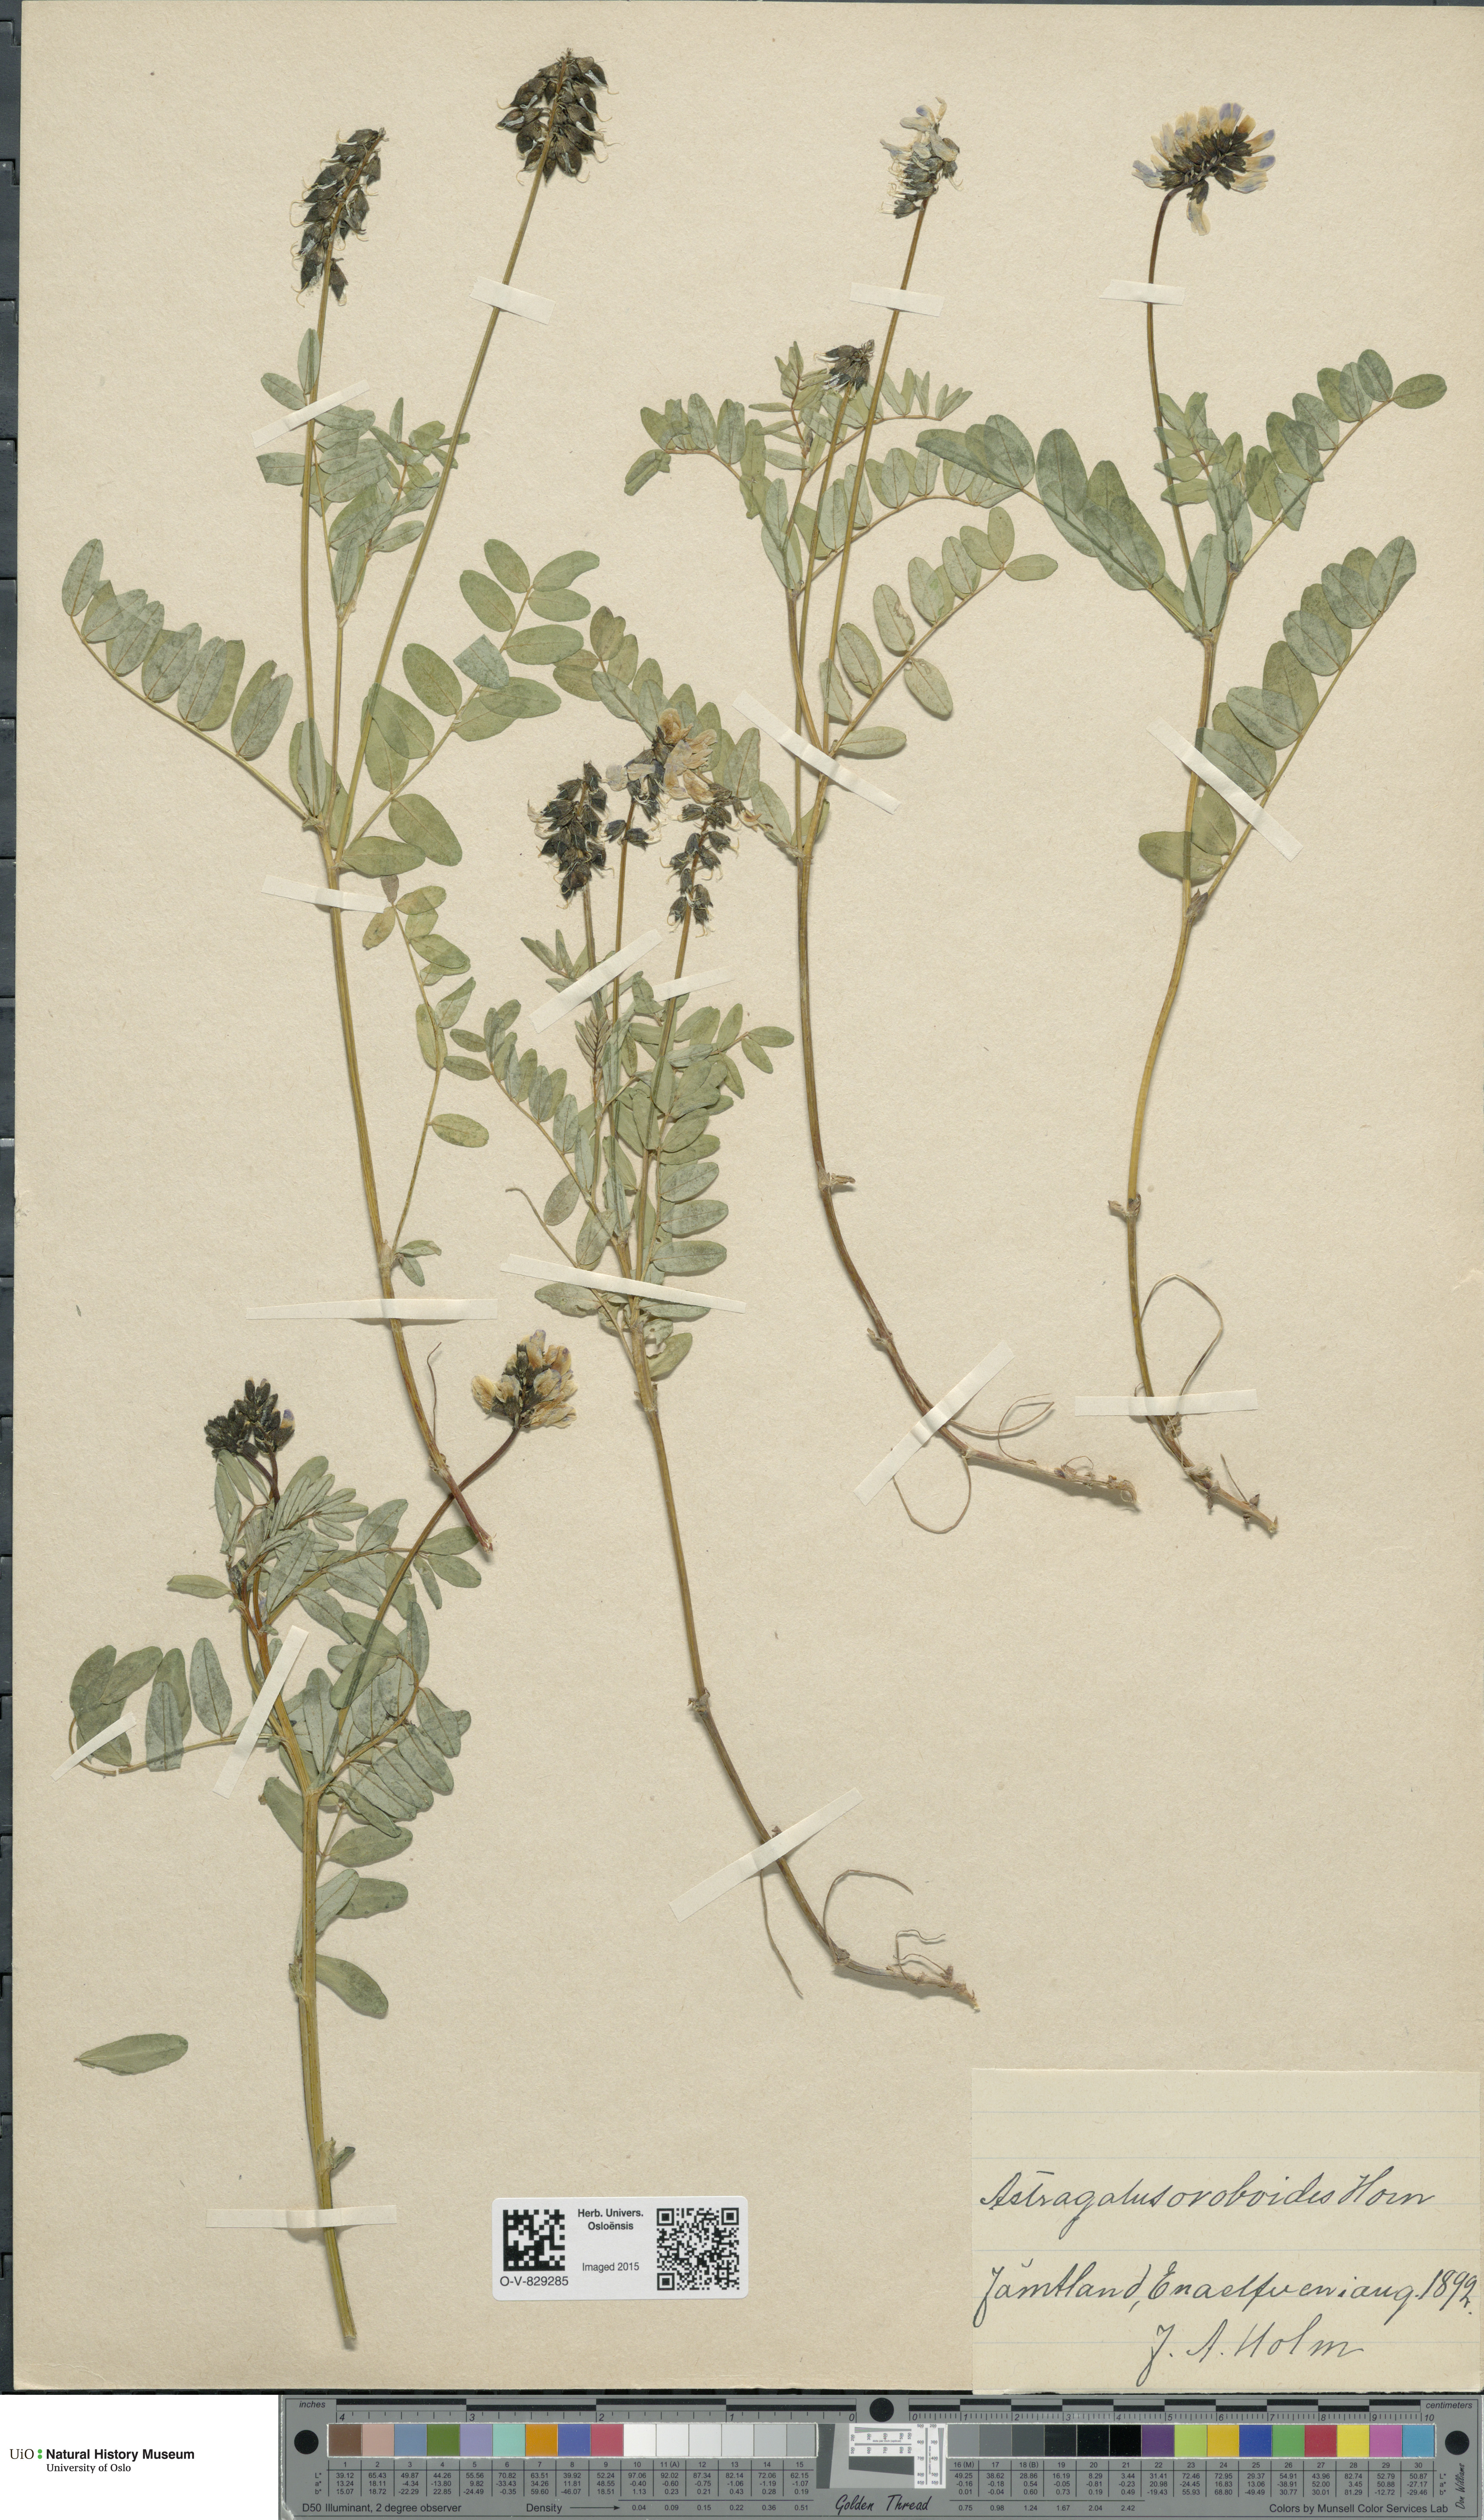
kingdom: Plantae
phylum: Tracheophyta
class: Magnoliopsida
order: Fabales
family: Fabaceae
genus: Astragalus
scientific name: Astragalus norvegicus
